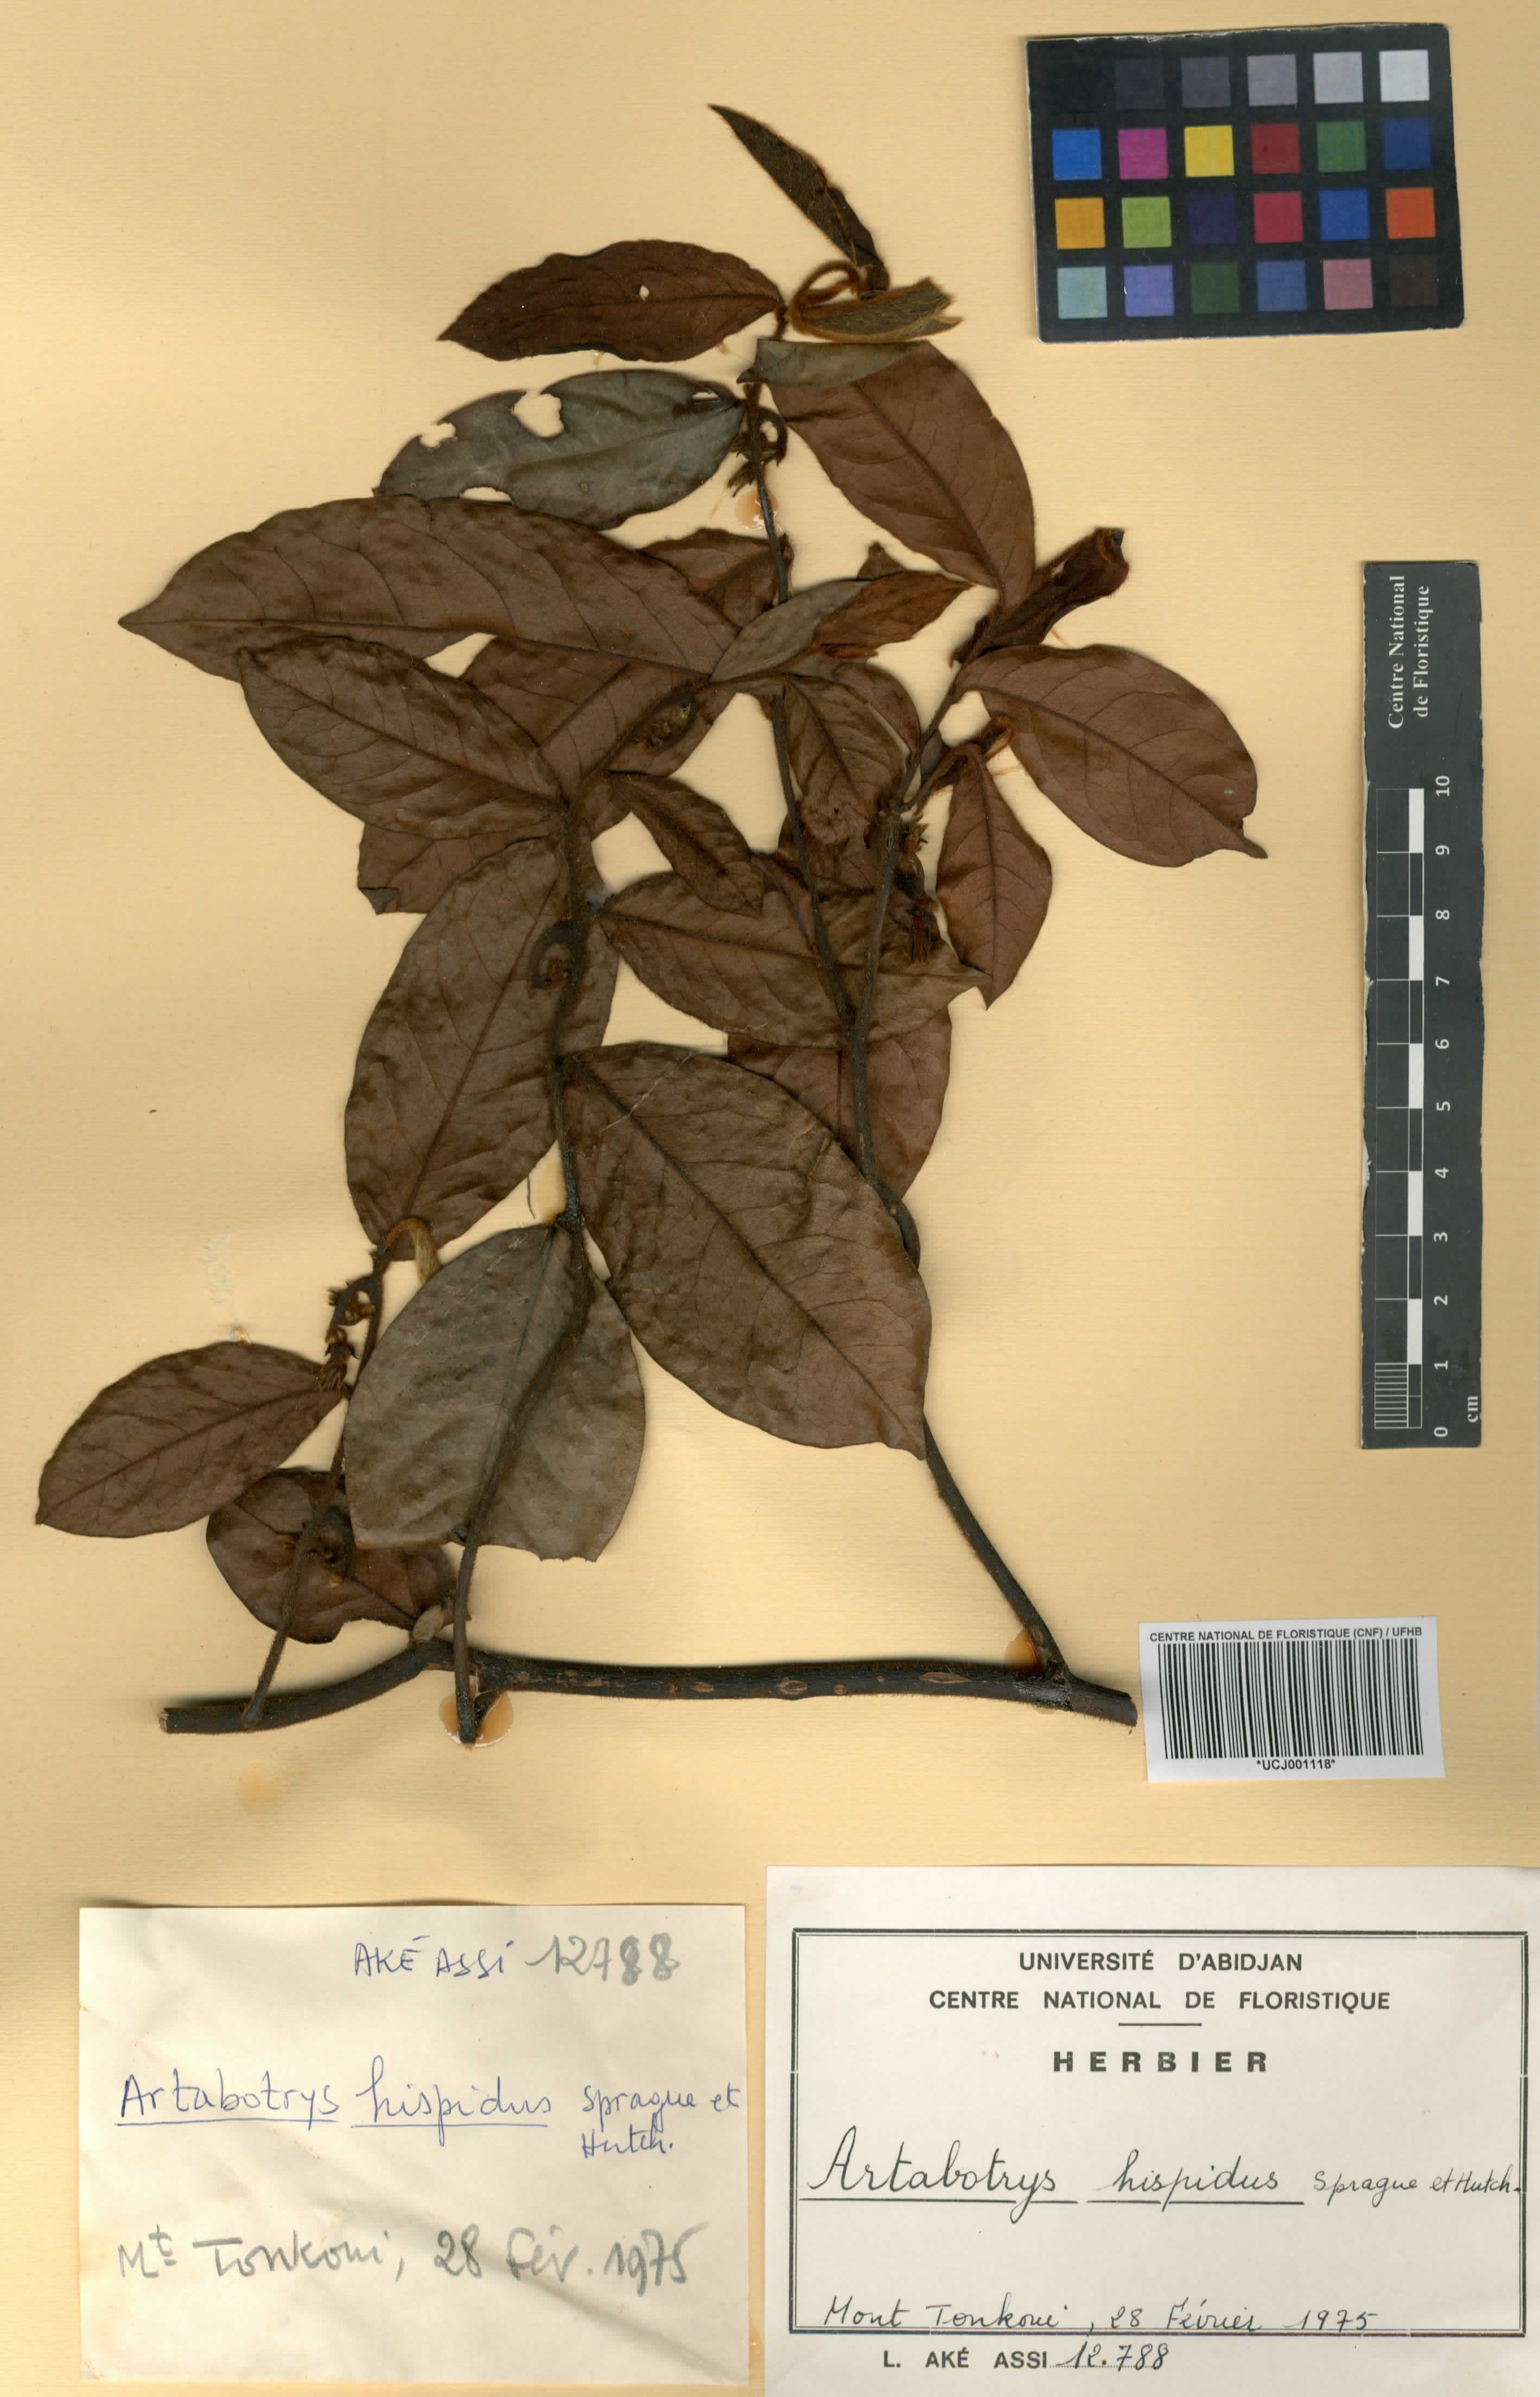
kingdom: Plantae
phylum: Tracheophyta
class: Magnoliopsida
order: Magnoliales
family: Annonaceae
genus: Artabotrys
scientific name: Artabotrys hispidus
